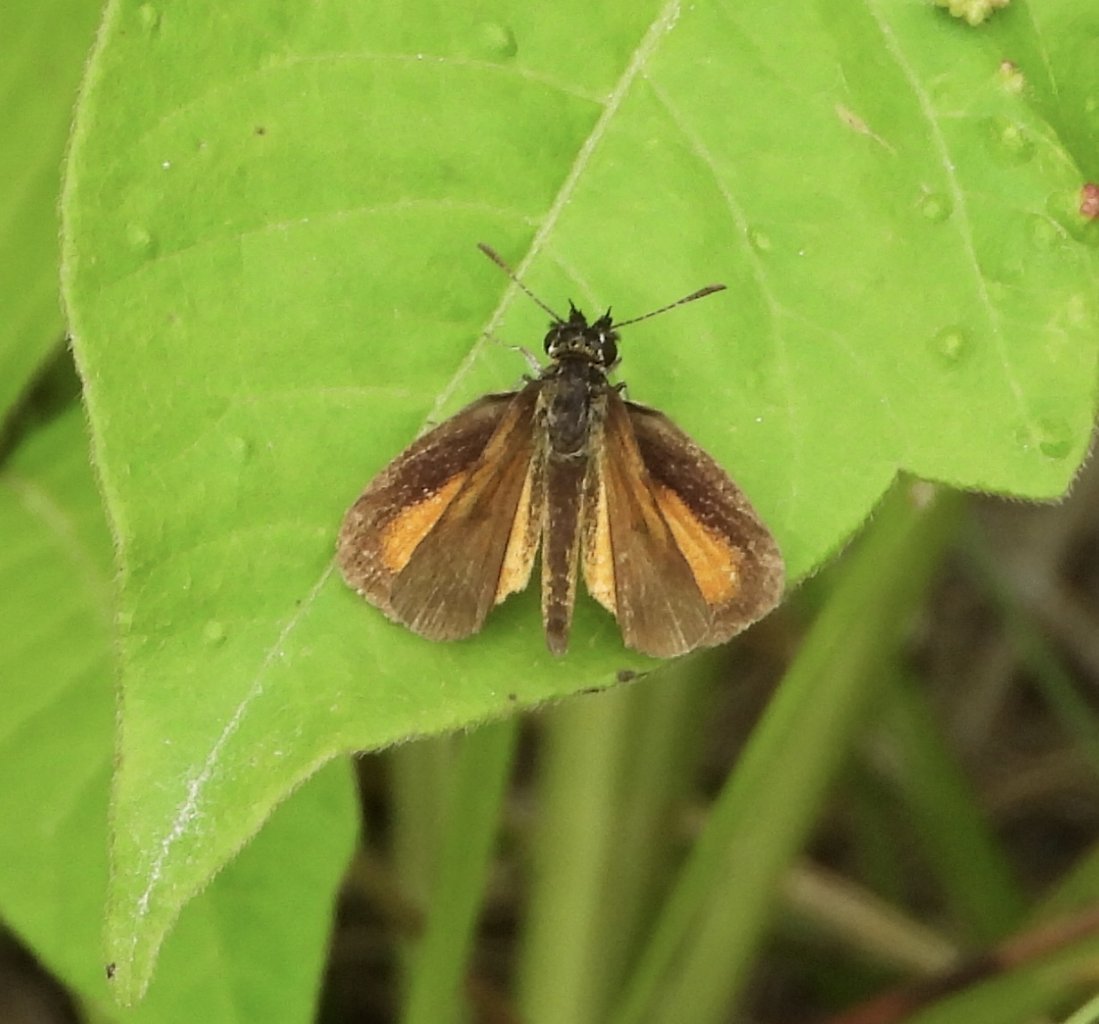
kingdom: Animalia
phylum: Arthropoda
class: Insecta
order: Lepidoptera
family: Hesperiidae
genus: Ancyloxypha
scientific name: Ancyloxypha numitor
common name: Least Skipper
